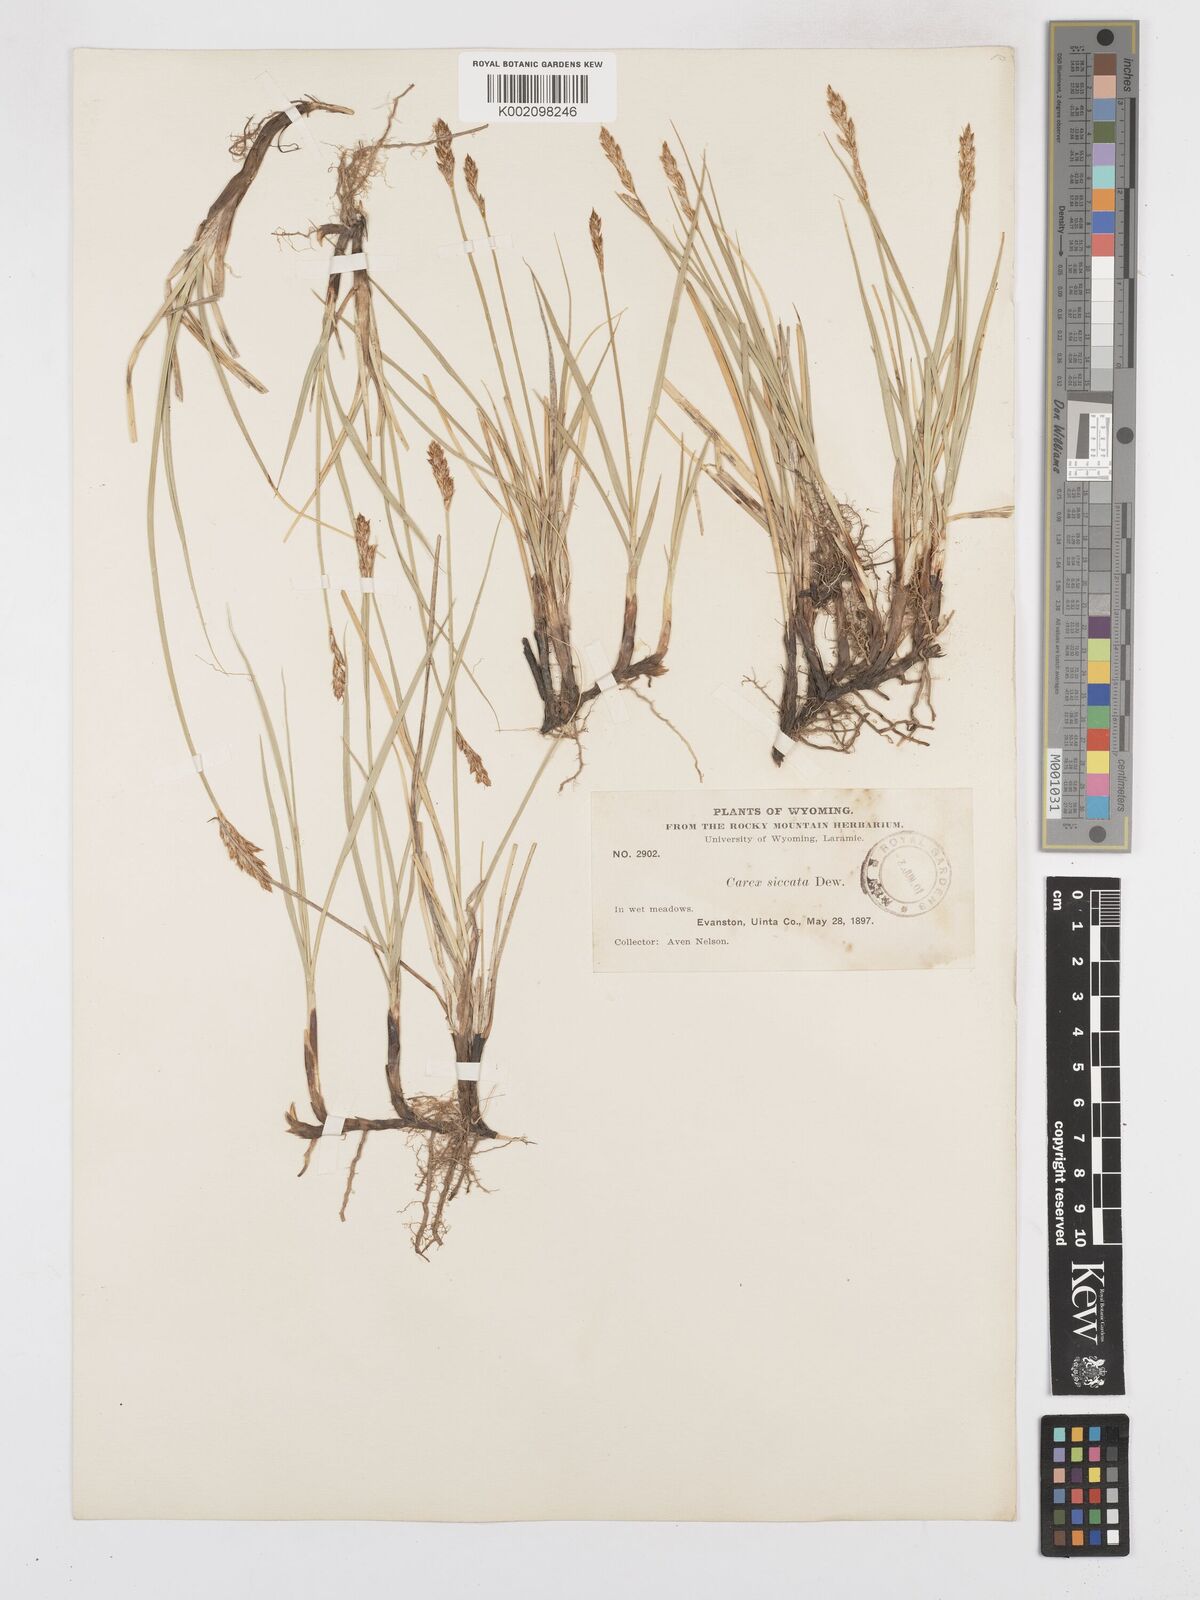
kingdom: Plantae
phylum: Tracheophyta
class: Liliopsida
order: Poales
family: Cyperaceae
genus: Carex
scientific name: Carex foenea
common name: Bronze sedge
